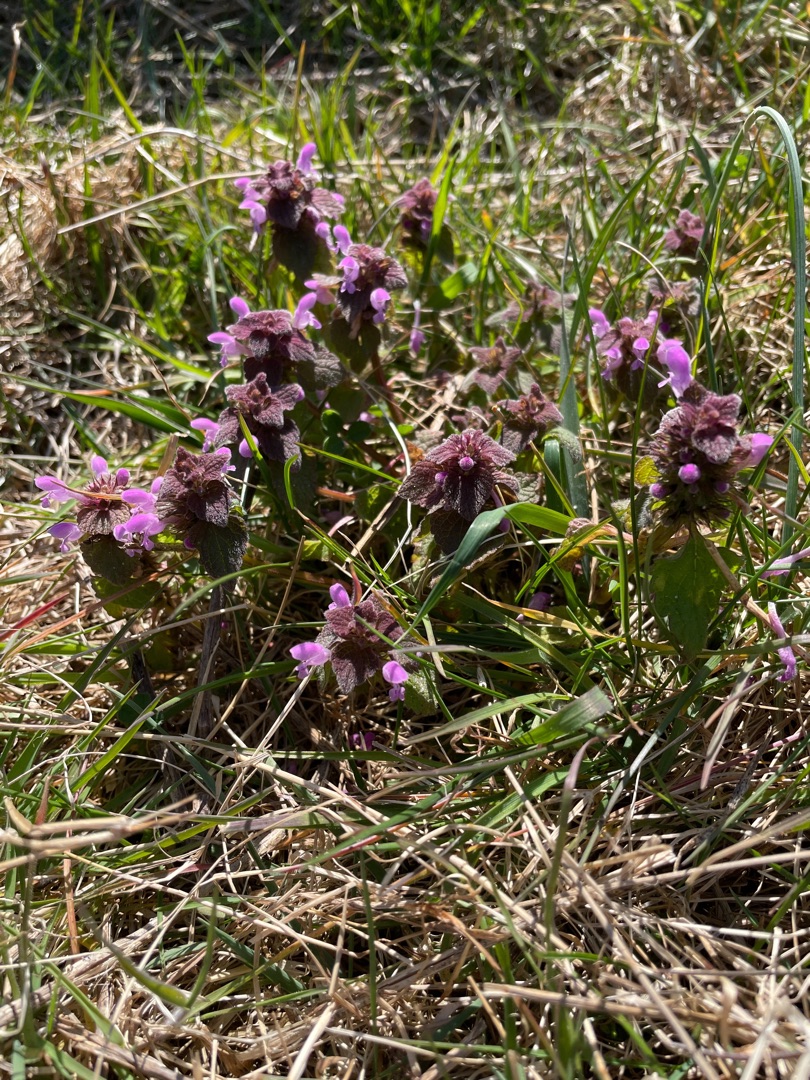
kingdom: Plantae
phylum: Tracheophyta
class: Magnoliopsida
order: Lamiales
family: Lamiaceae
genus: Lamium
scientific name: Lamium purpureum
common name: Rød tvetand
